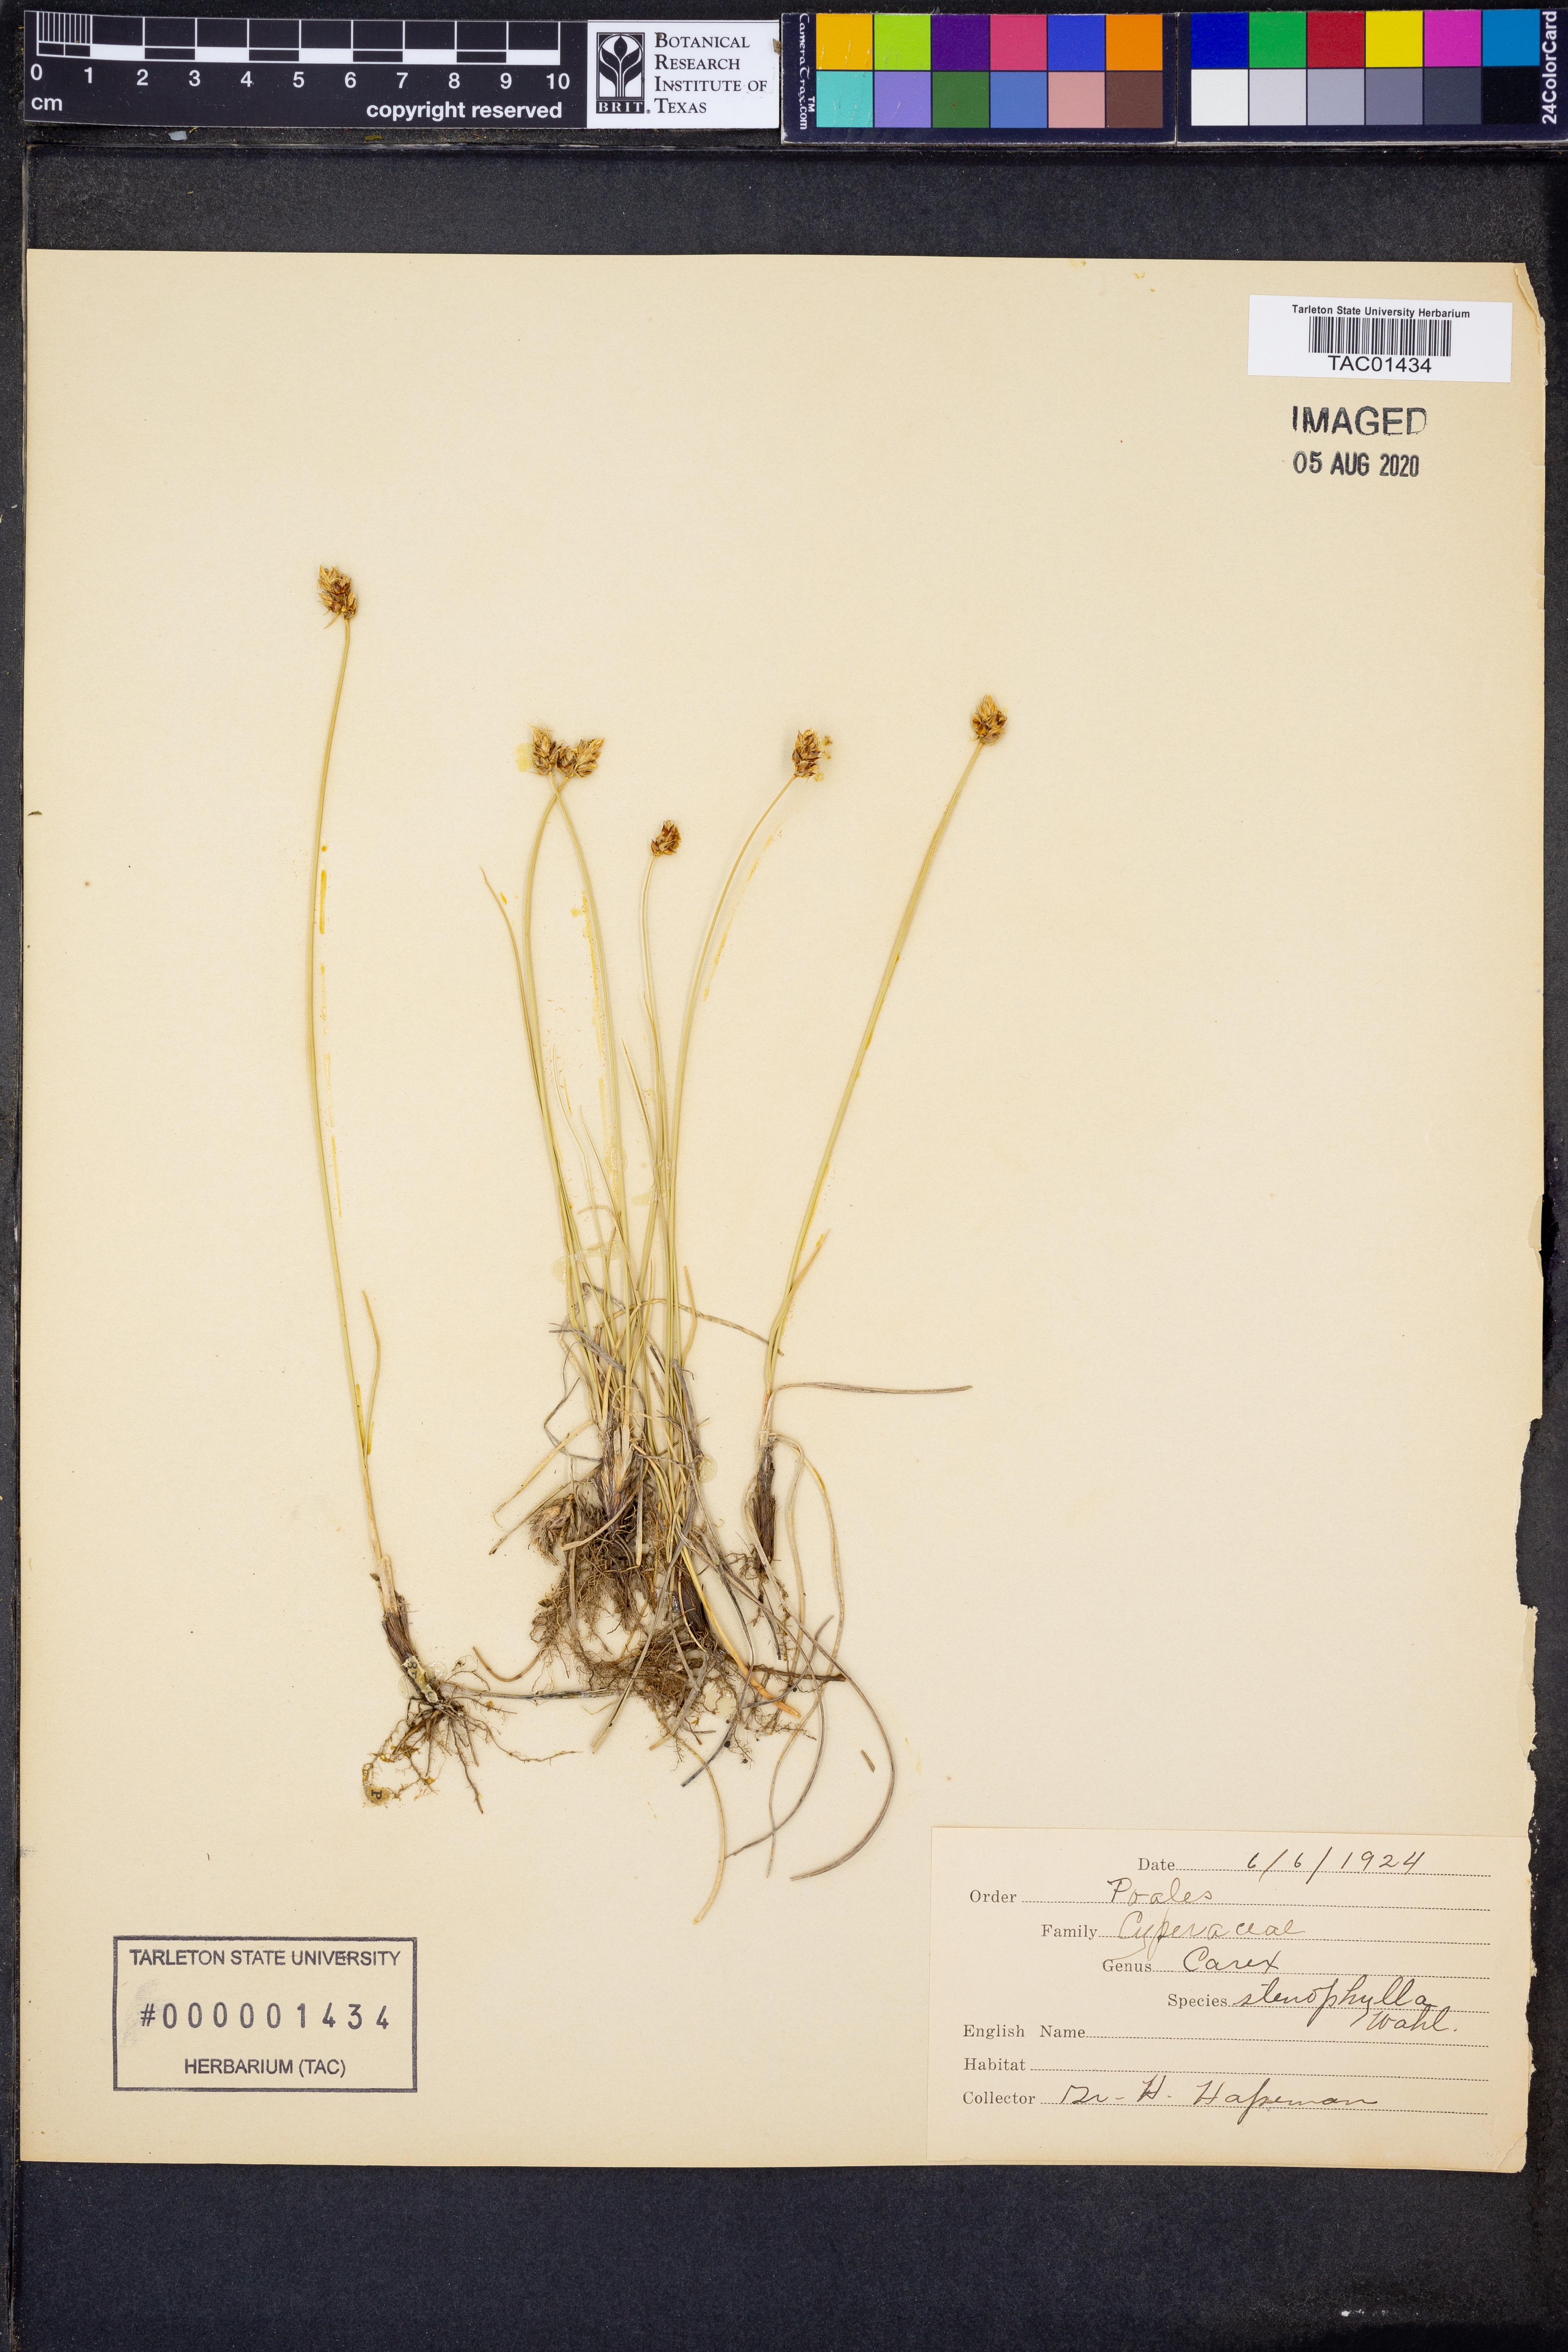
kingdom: Plantae
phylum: Tracheophyta
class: Liliopsida
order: Poales
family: Cyperaceae
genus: Carex
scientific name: Carex stenophylla
